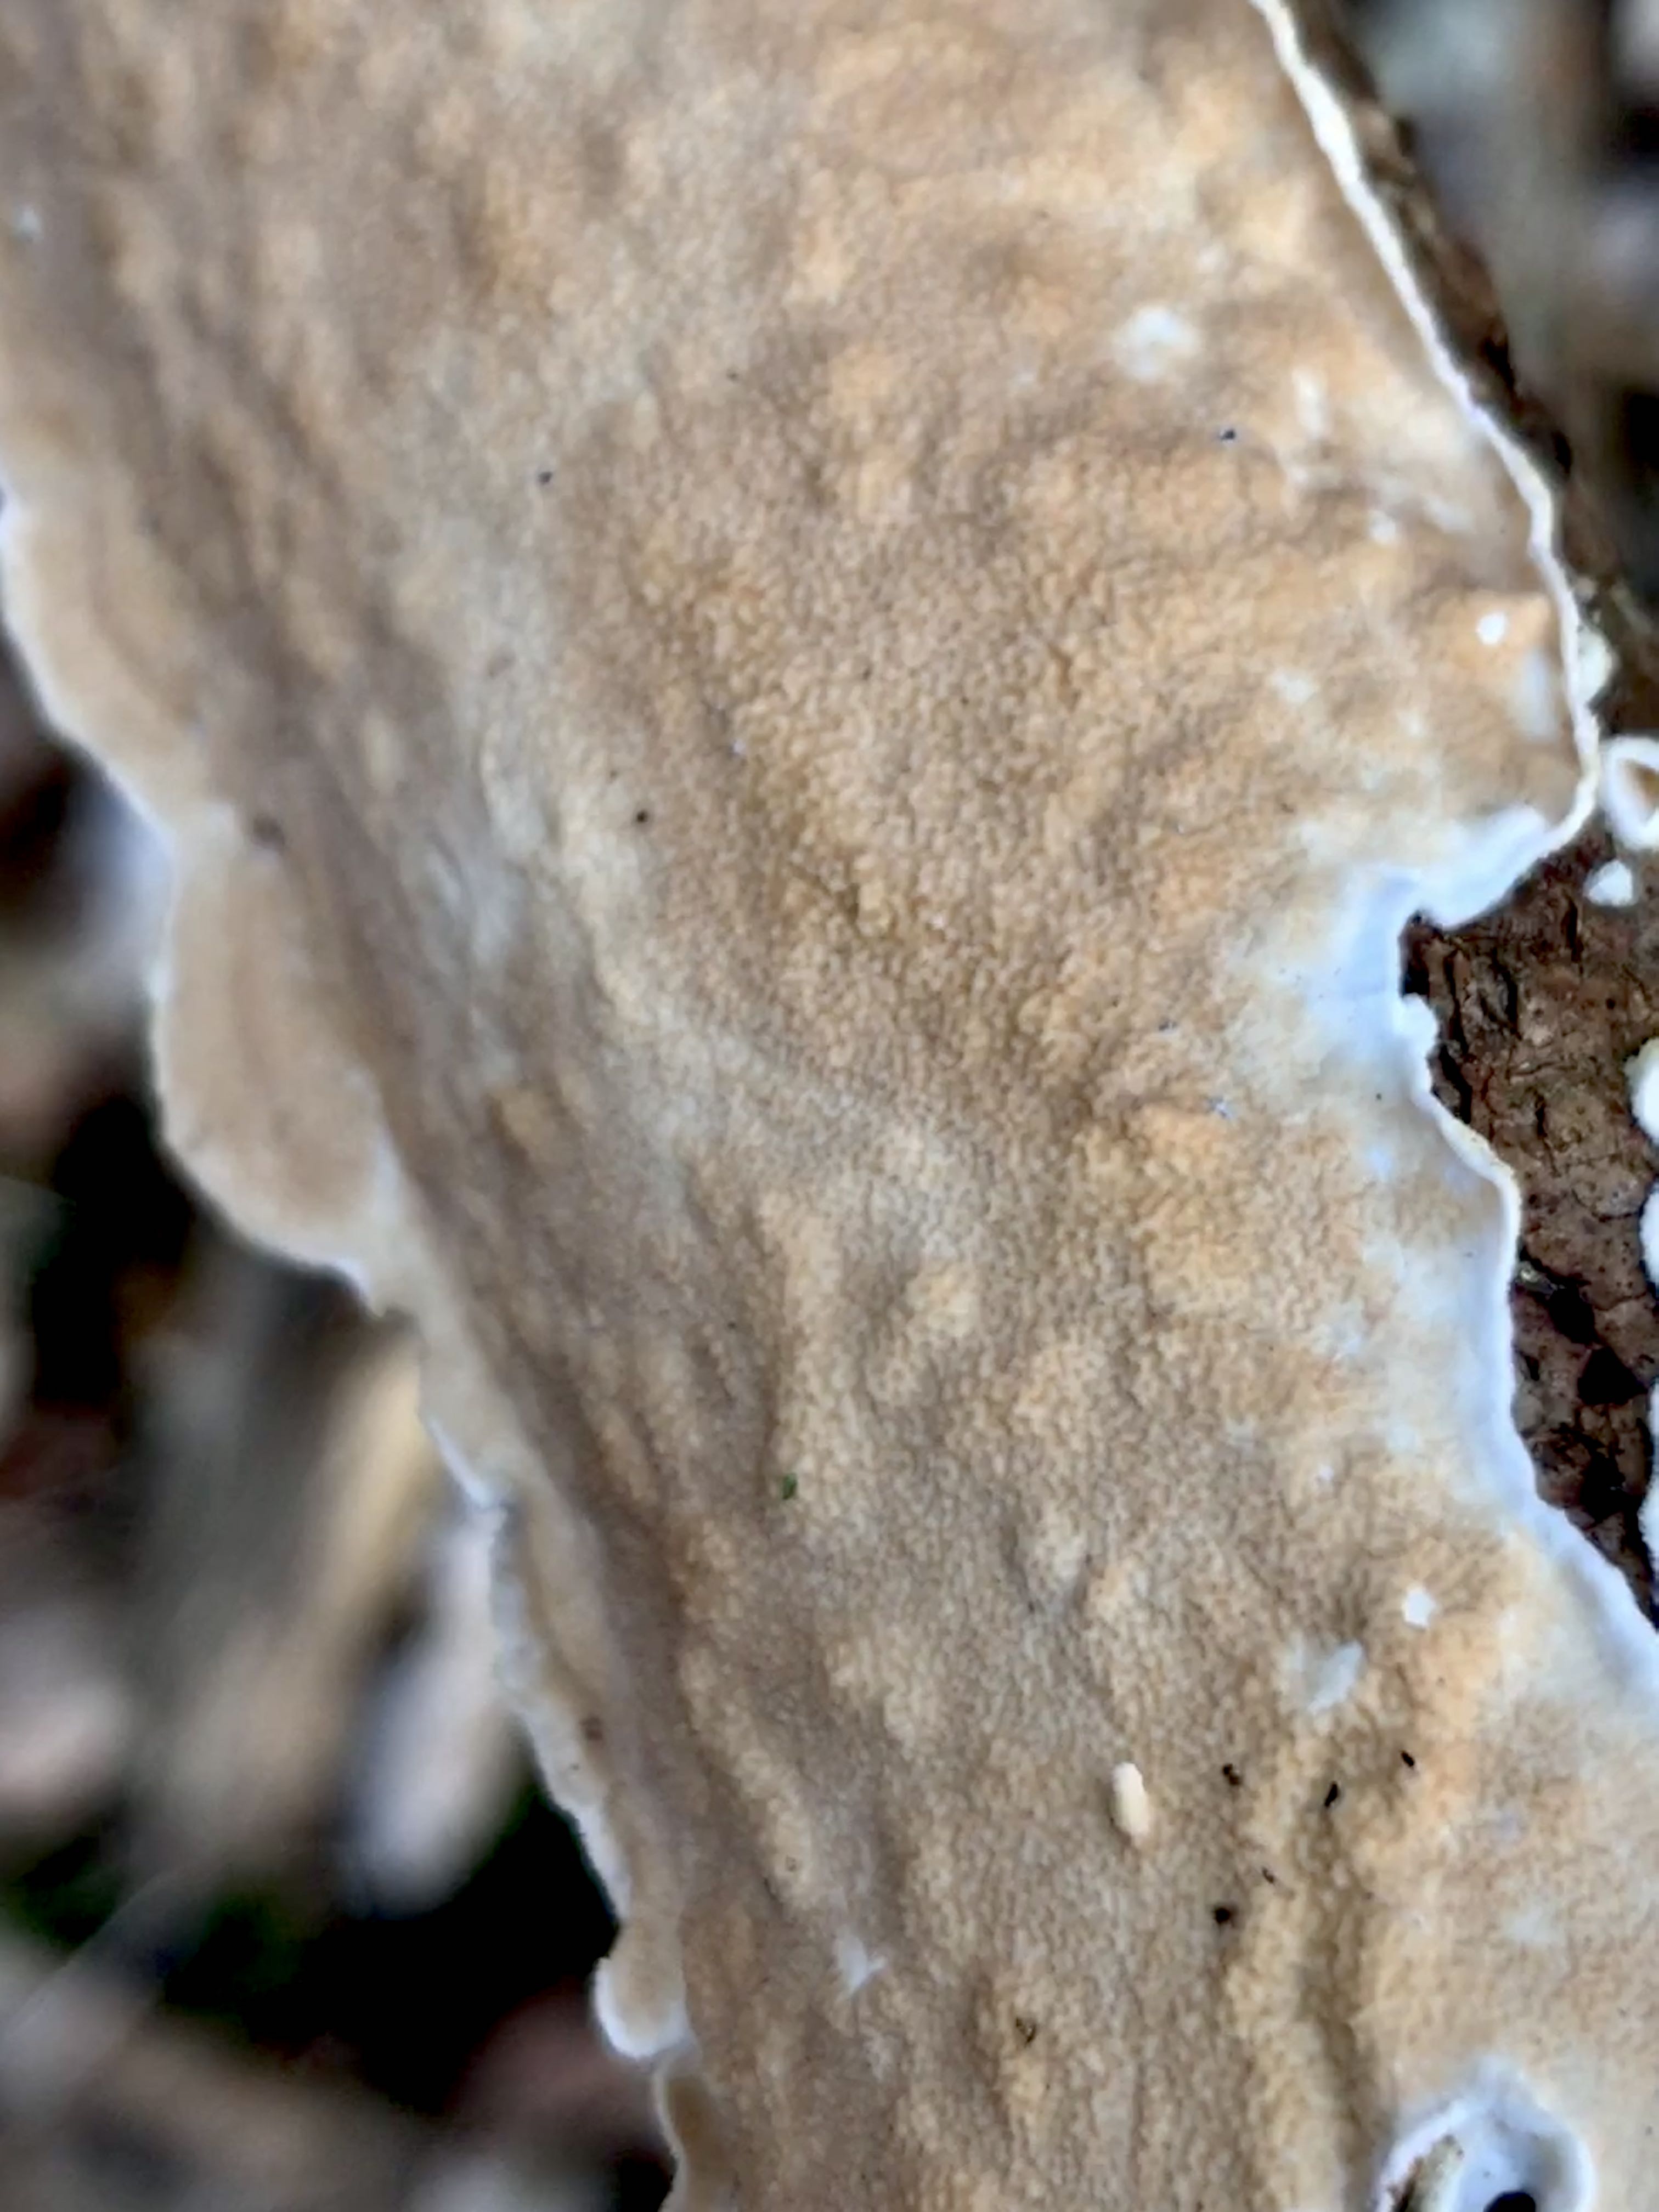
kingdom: Fungi
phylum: Basidiomycota
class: Agaricomycetes
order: Polyporales
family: Irpicaceae
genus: Byssomerulius
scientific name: Byssomerulius corium
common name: læder-åresvamp
